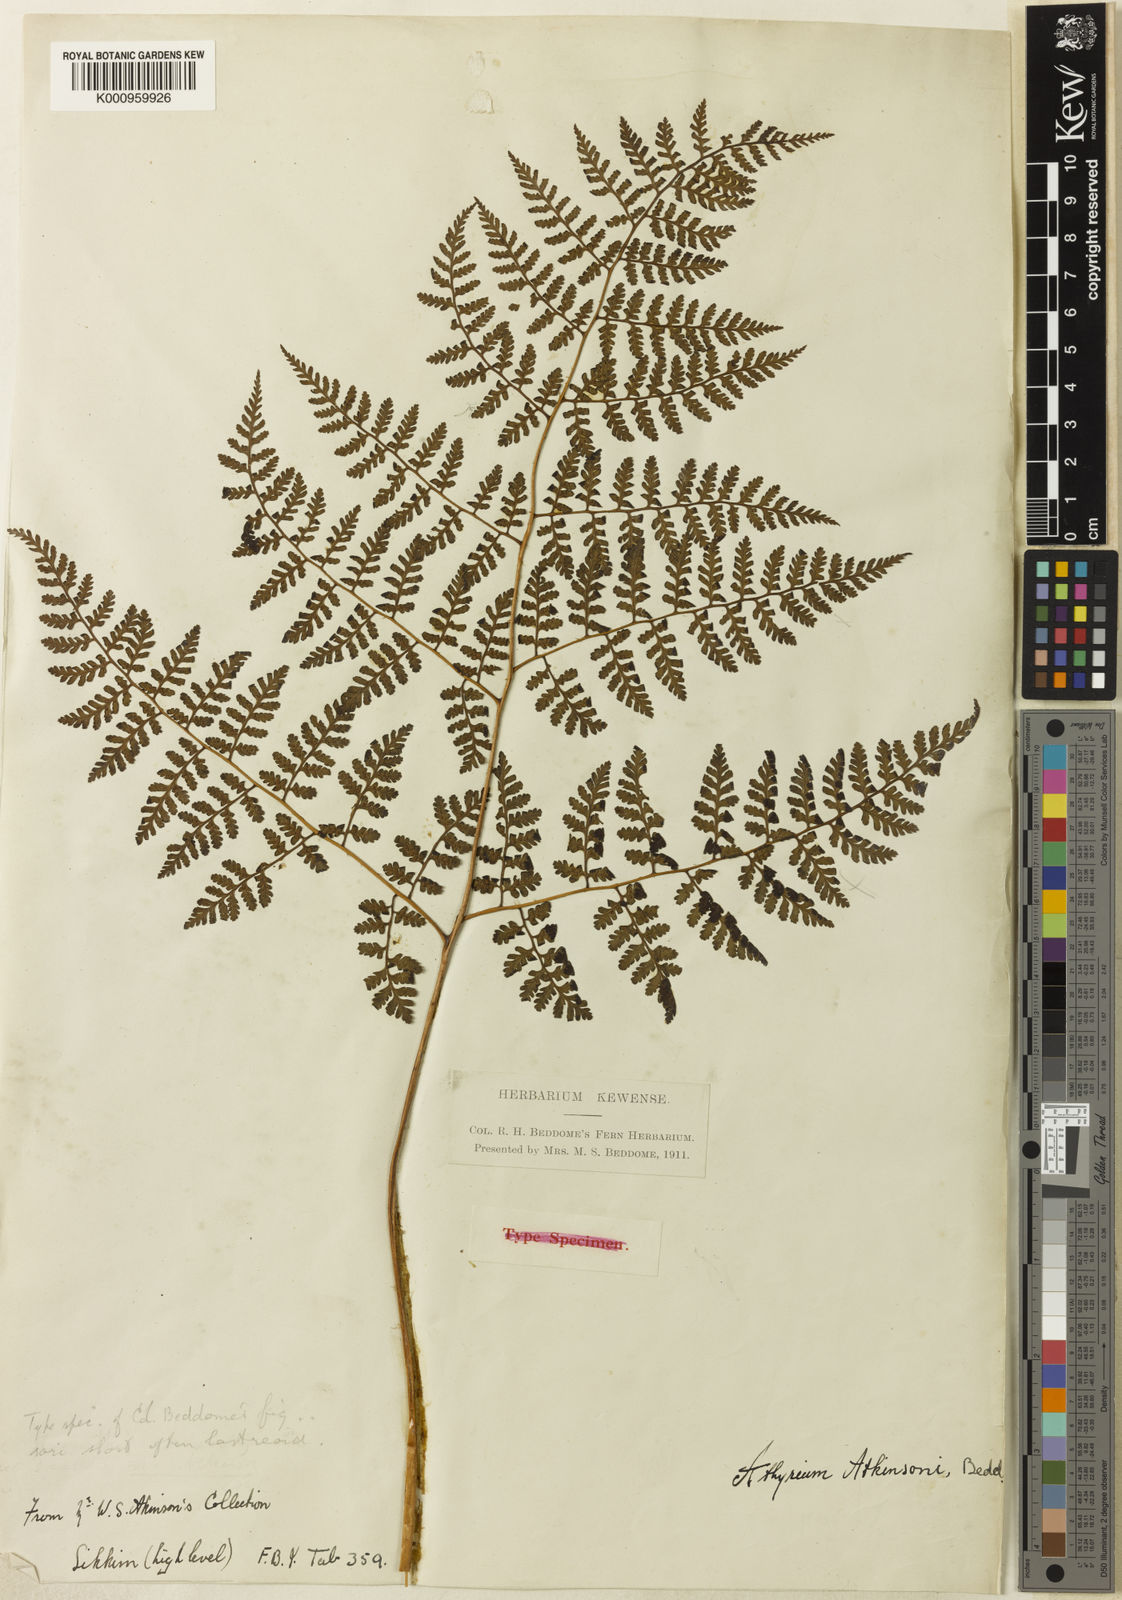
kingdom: Plantae
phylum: Tracheophyta
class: Polypodiopsida
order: Polypodiales
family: Athyriaceae
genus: Athyrium
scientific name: Athyrium atkinsonii
